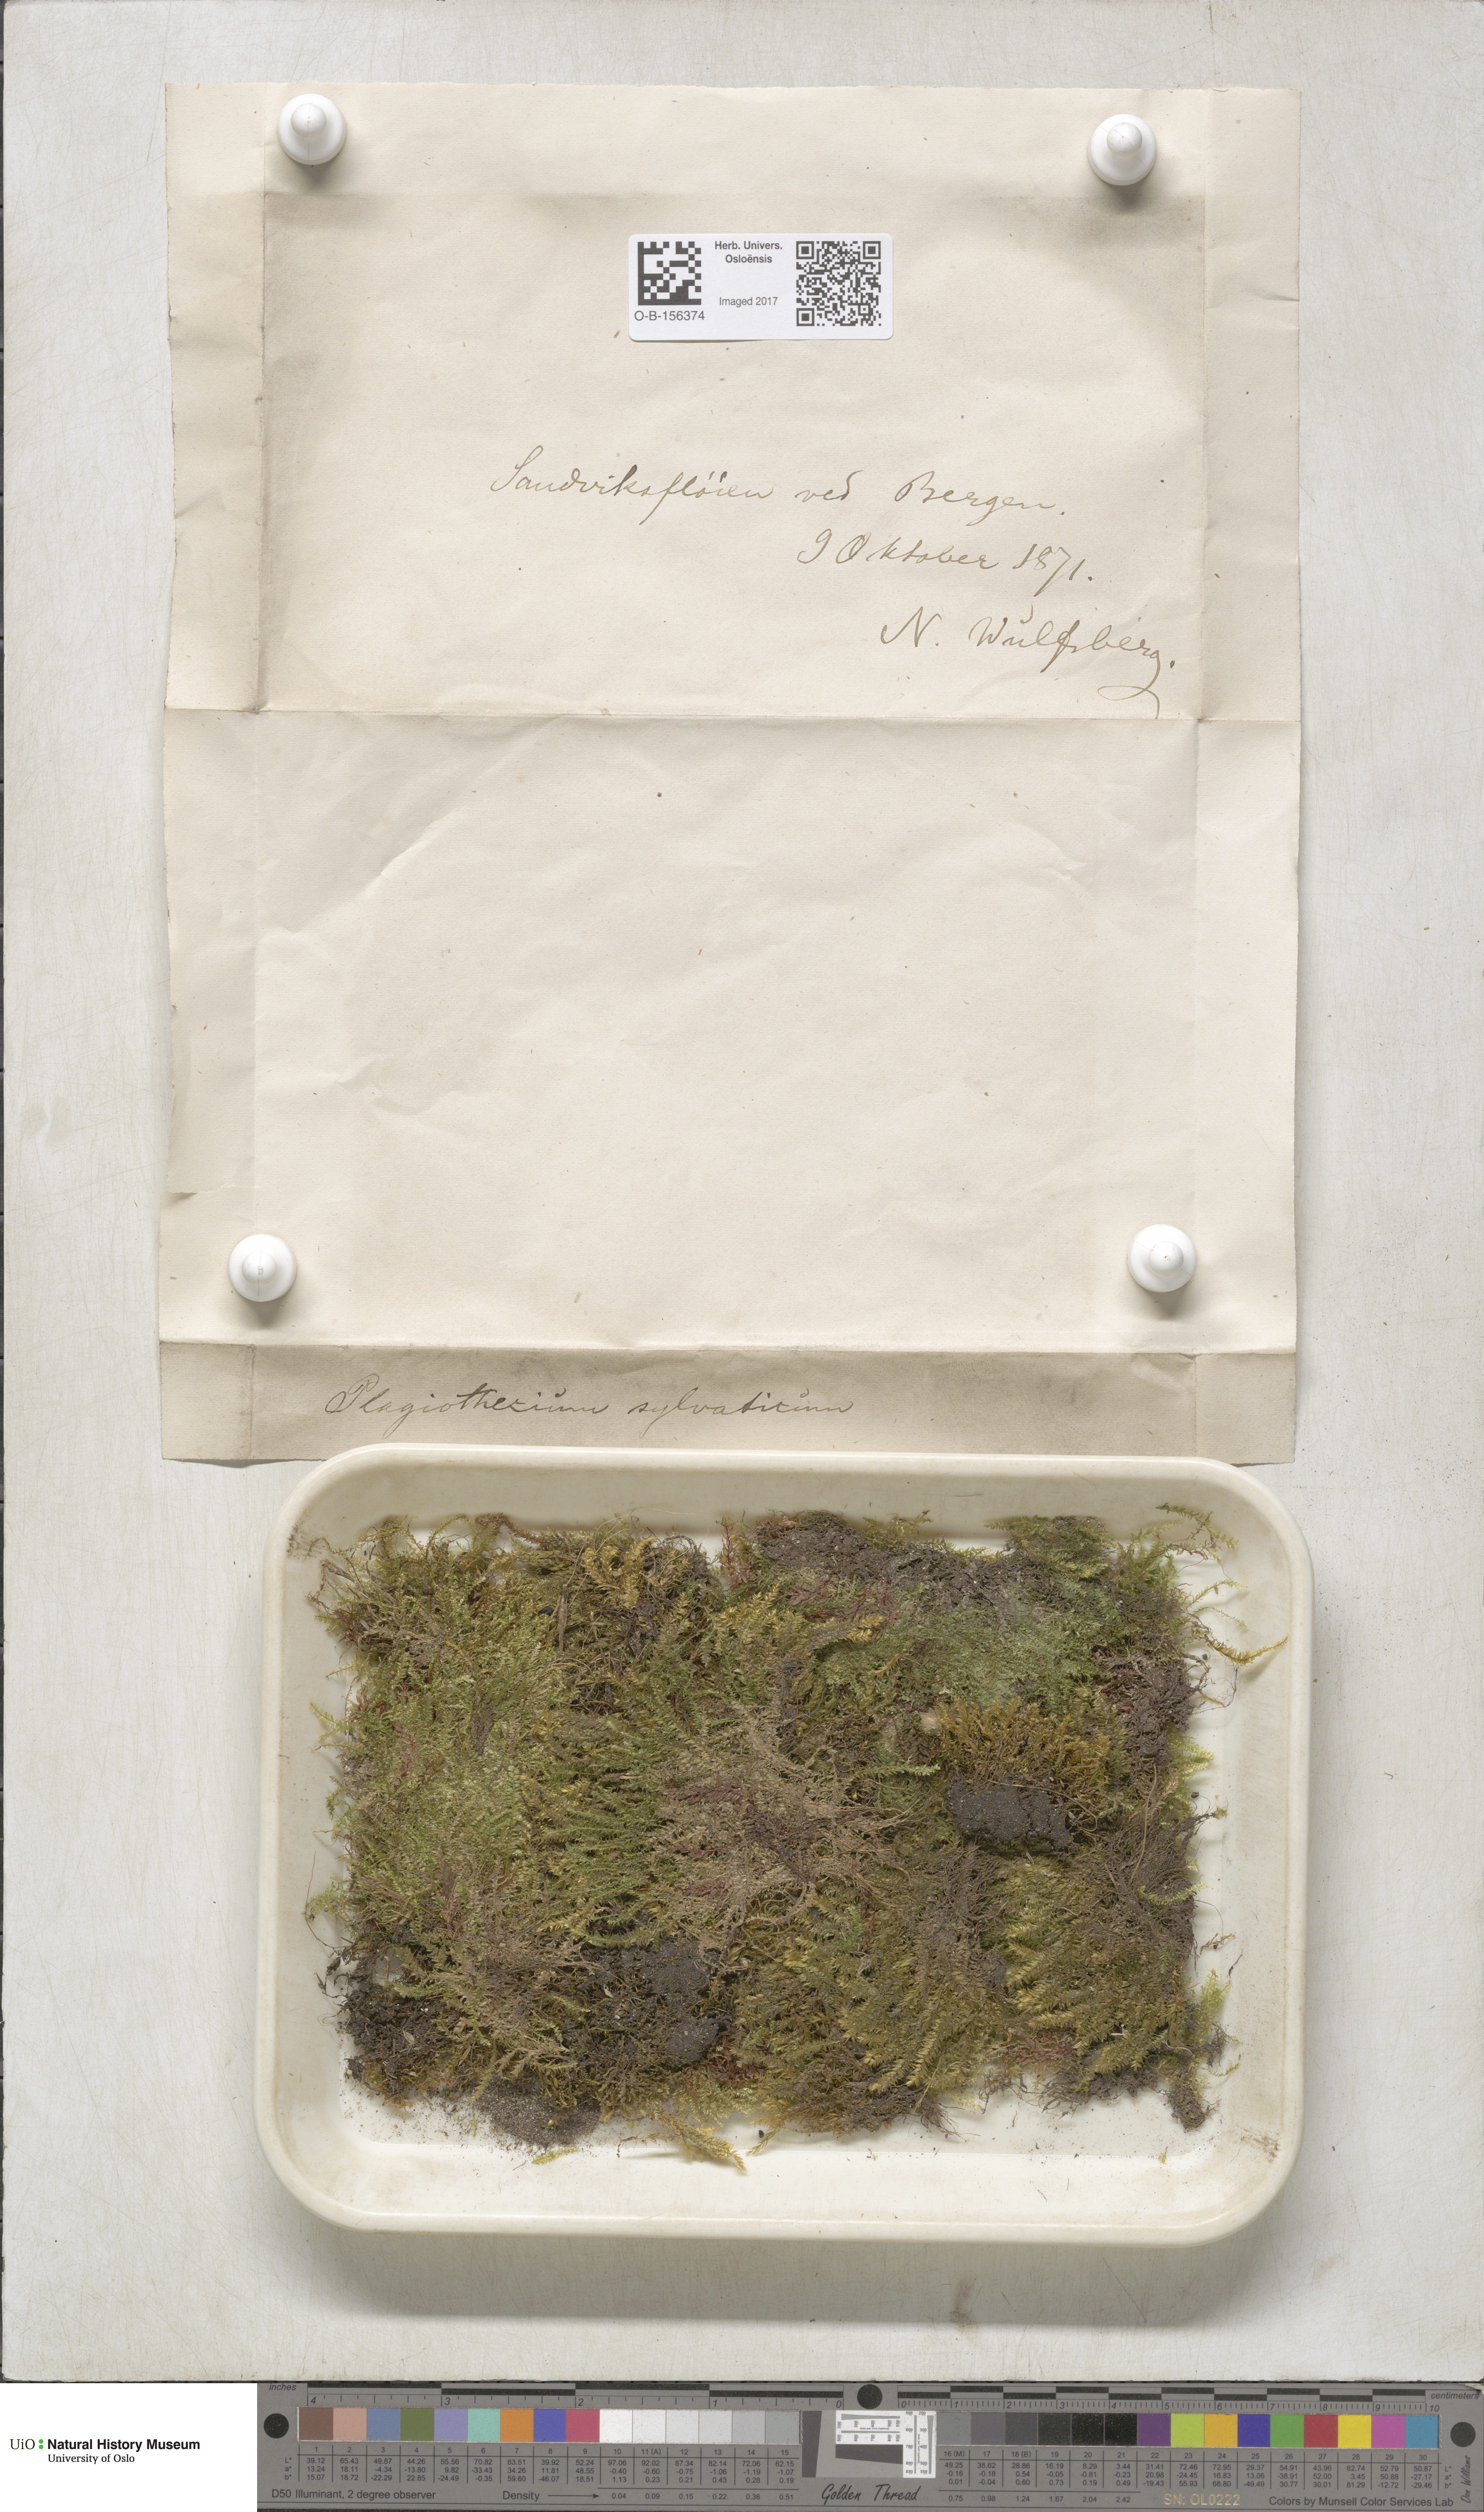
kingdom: Plantae
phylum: Bryophyta
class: Bryopsida
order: Hypnales
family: Plagiotheciaceae
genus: Plagiothecium
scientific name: Plagiothecium nemorale
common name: Woodsy silk-moss
